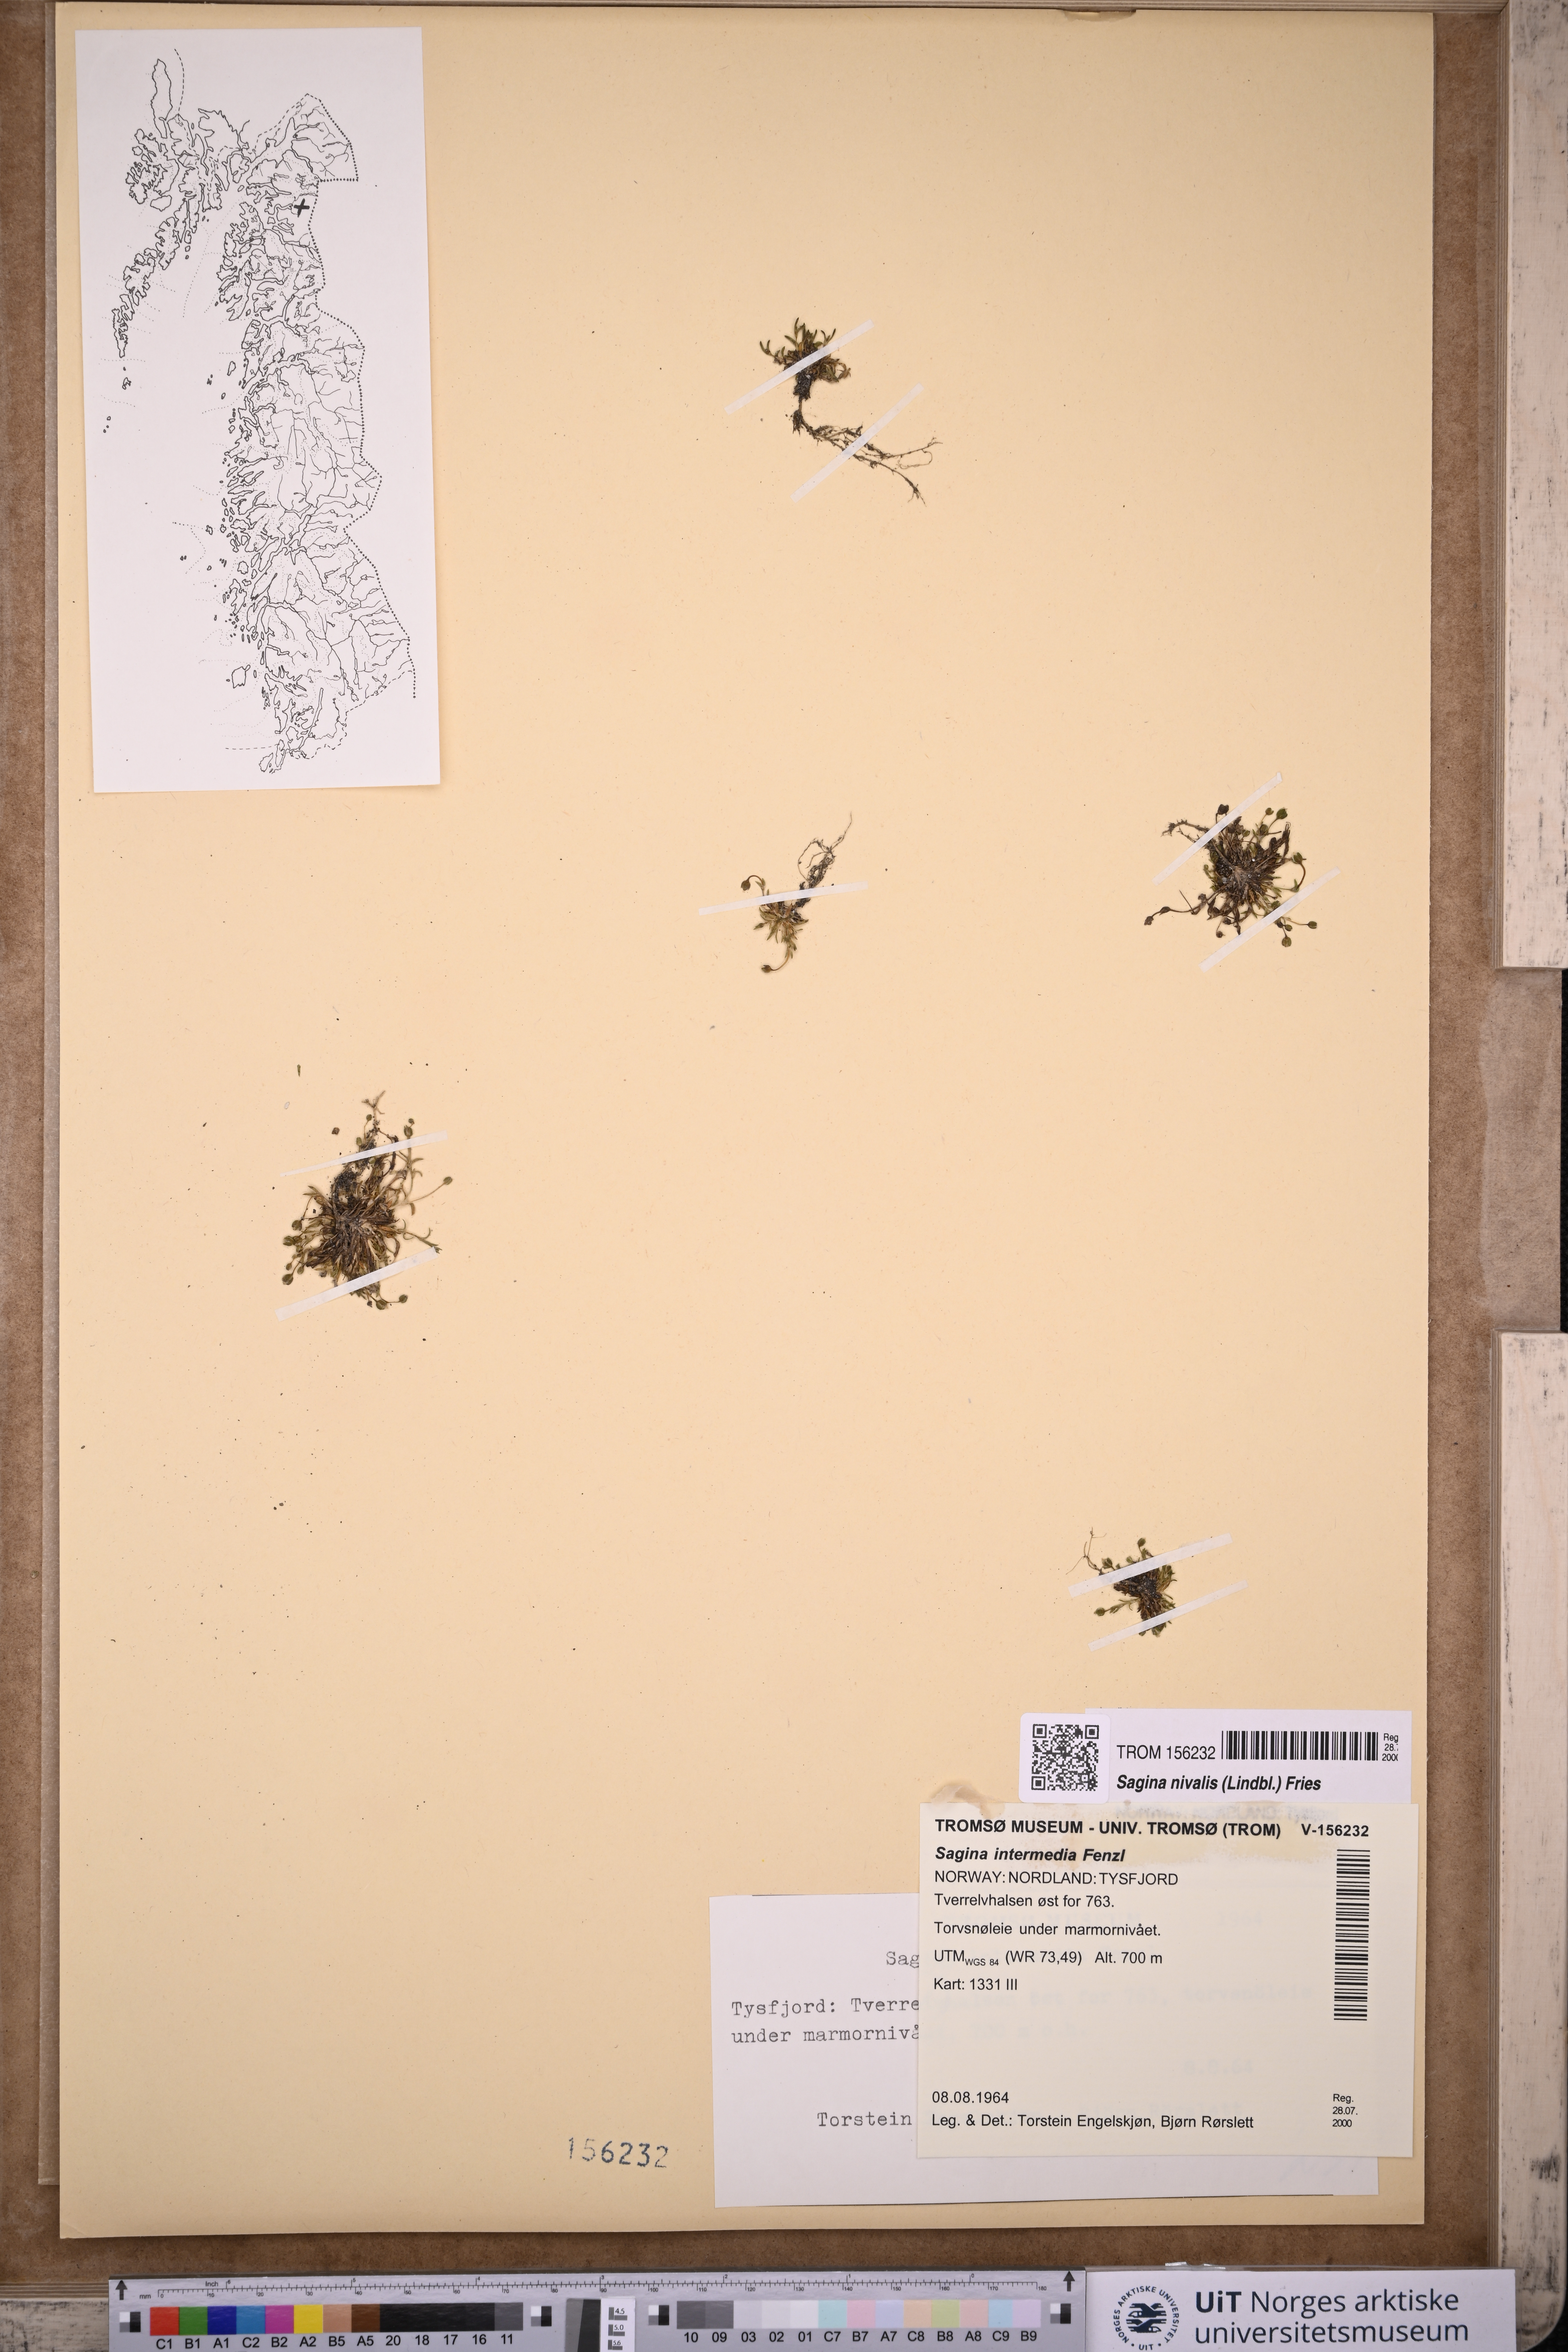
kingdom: Plantae
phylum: Tracheophyta
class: Magnoliopsida
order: Caryophyllales
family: Caryophyllaceae
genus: Sagina
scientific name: Sagina nivalis
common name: Snow pearlwort
